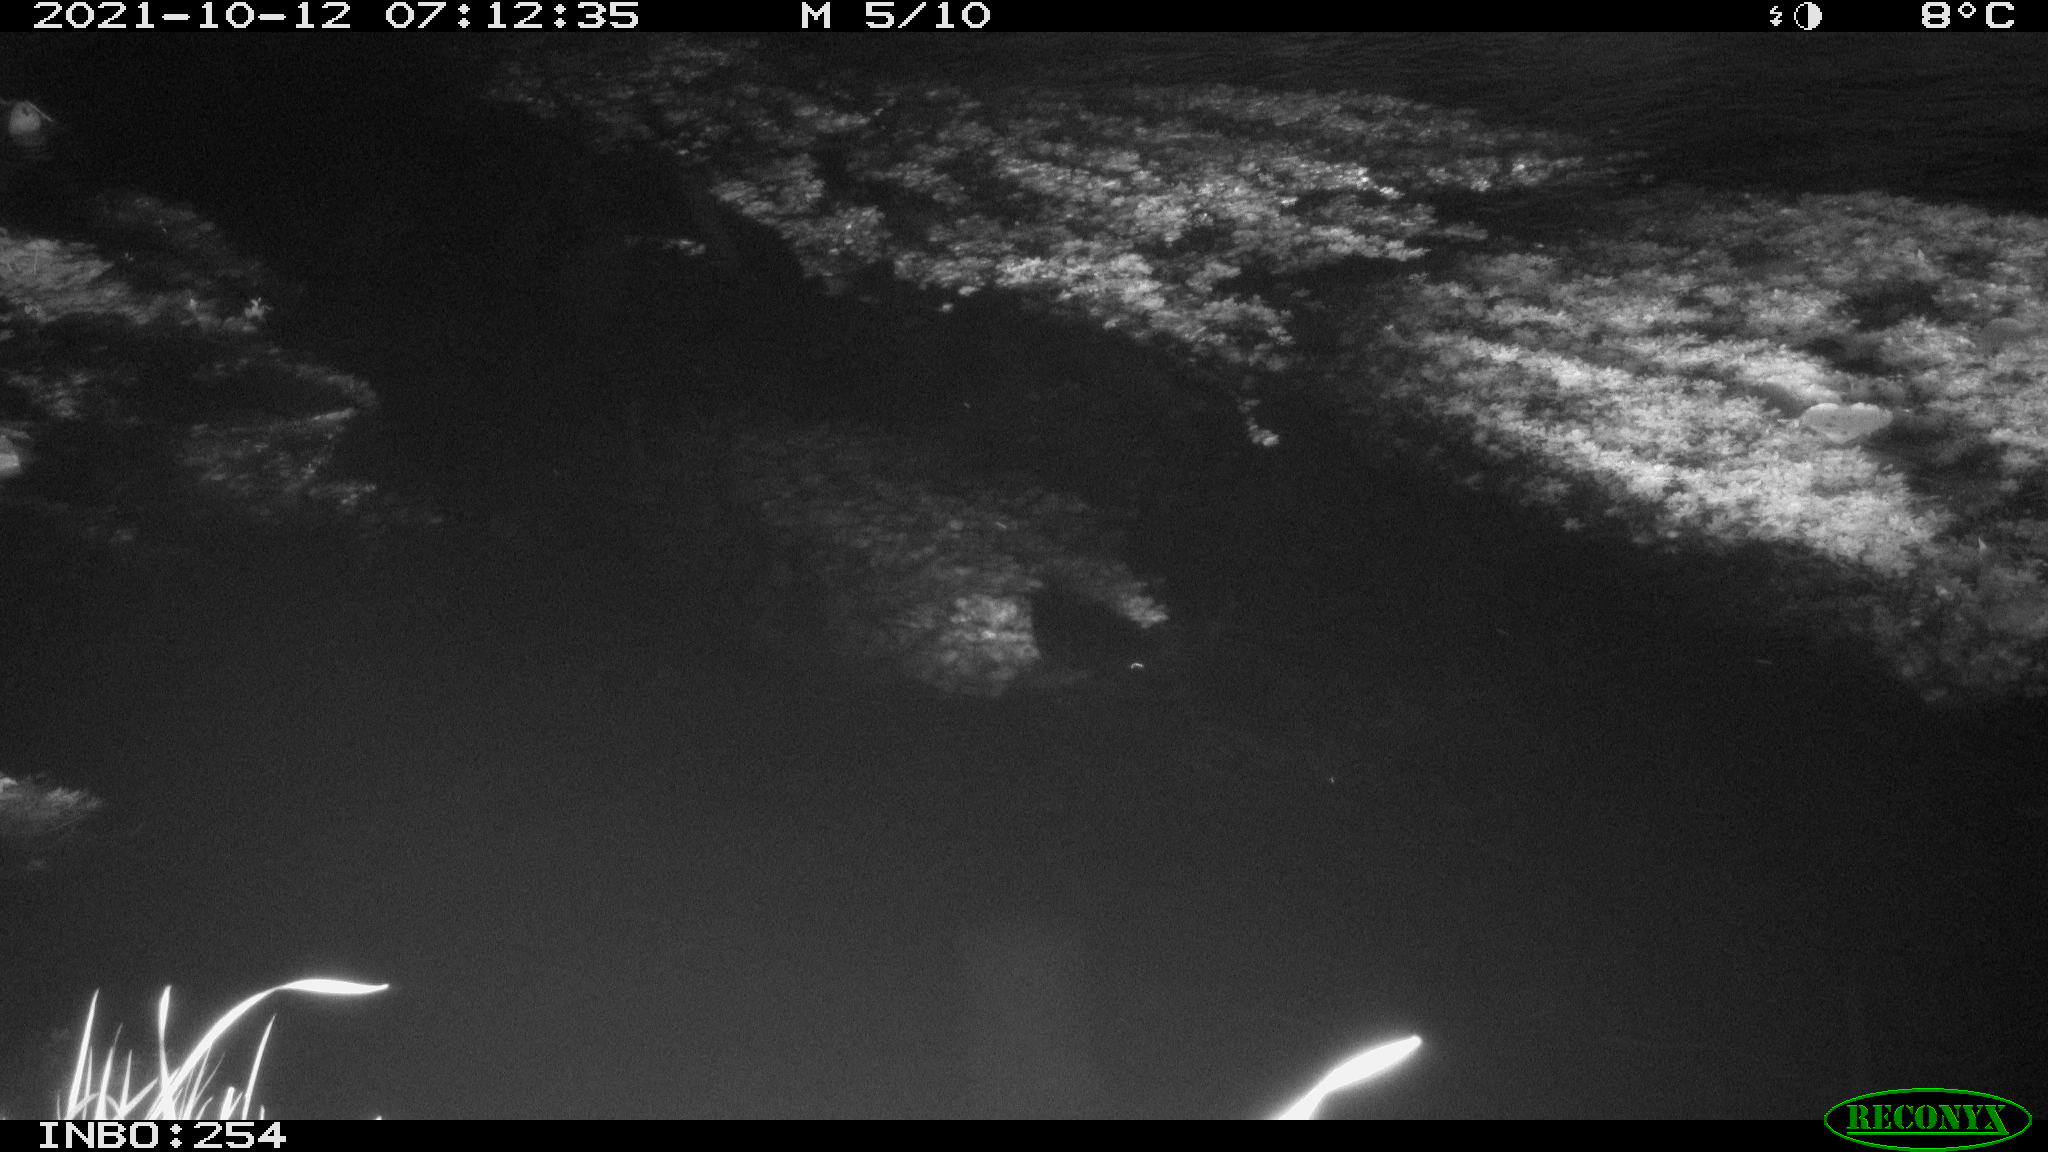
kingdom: Animalia
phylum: Chordata
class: Aves
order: Anseriformes
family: Anatidae
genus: Anas
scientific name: Anas platyrhynchos
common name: Mallard
